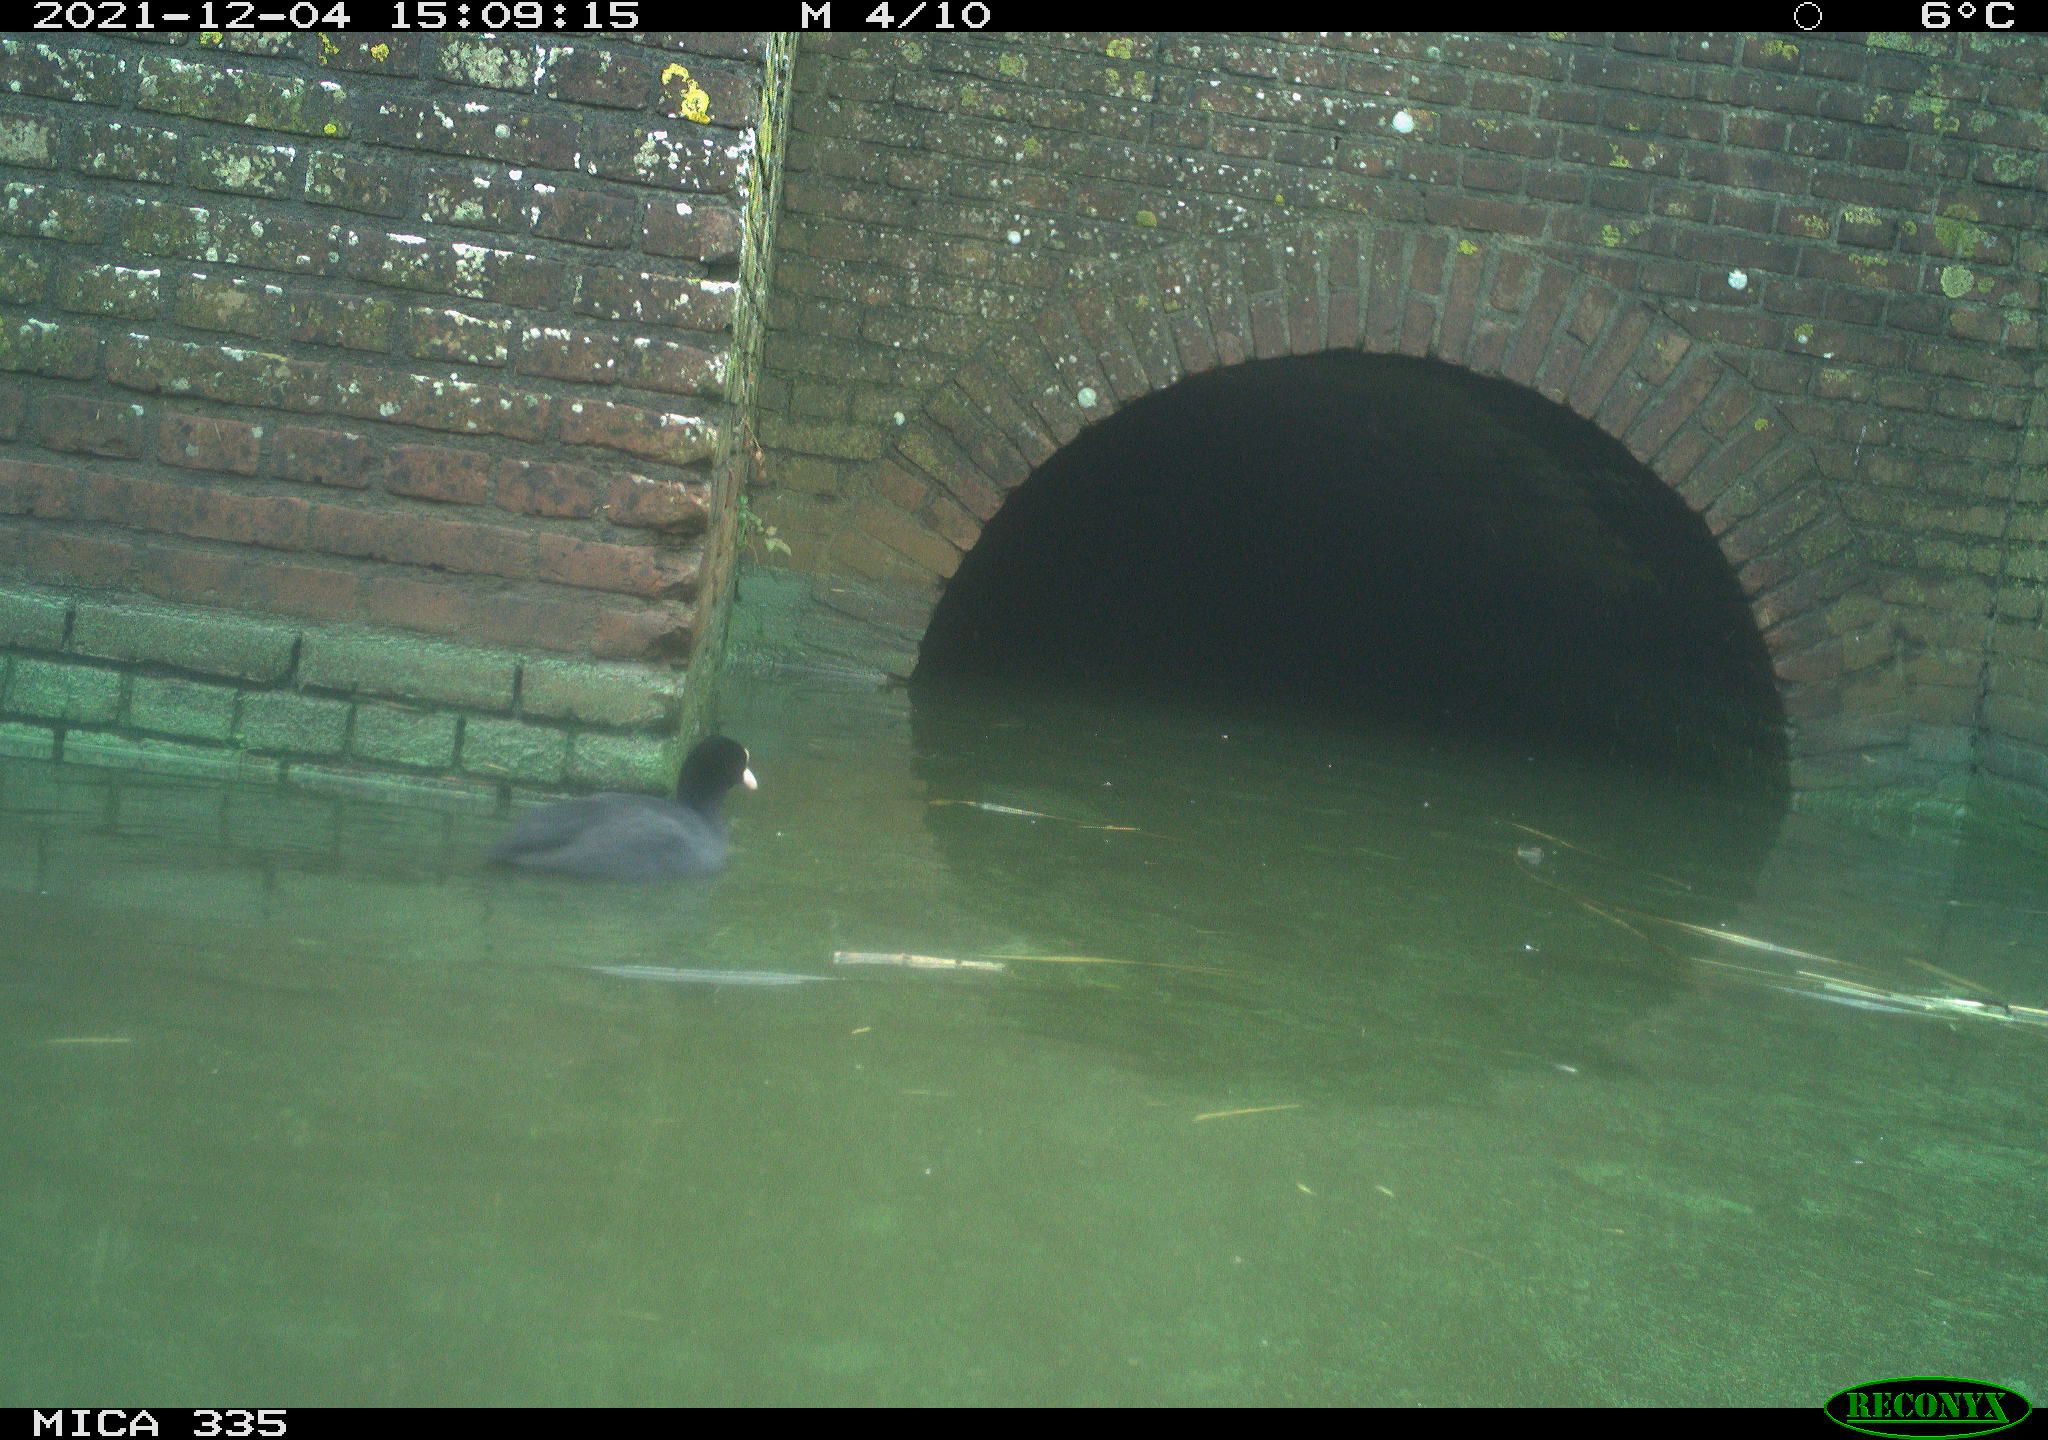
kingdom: Animalia
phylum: Chordata
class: Aves
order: Gruiformes
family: Rallidae
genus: Fulica
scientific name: Fulica atra
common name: Eurasian coot
